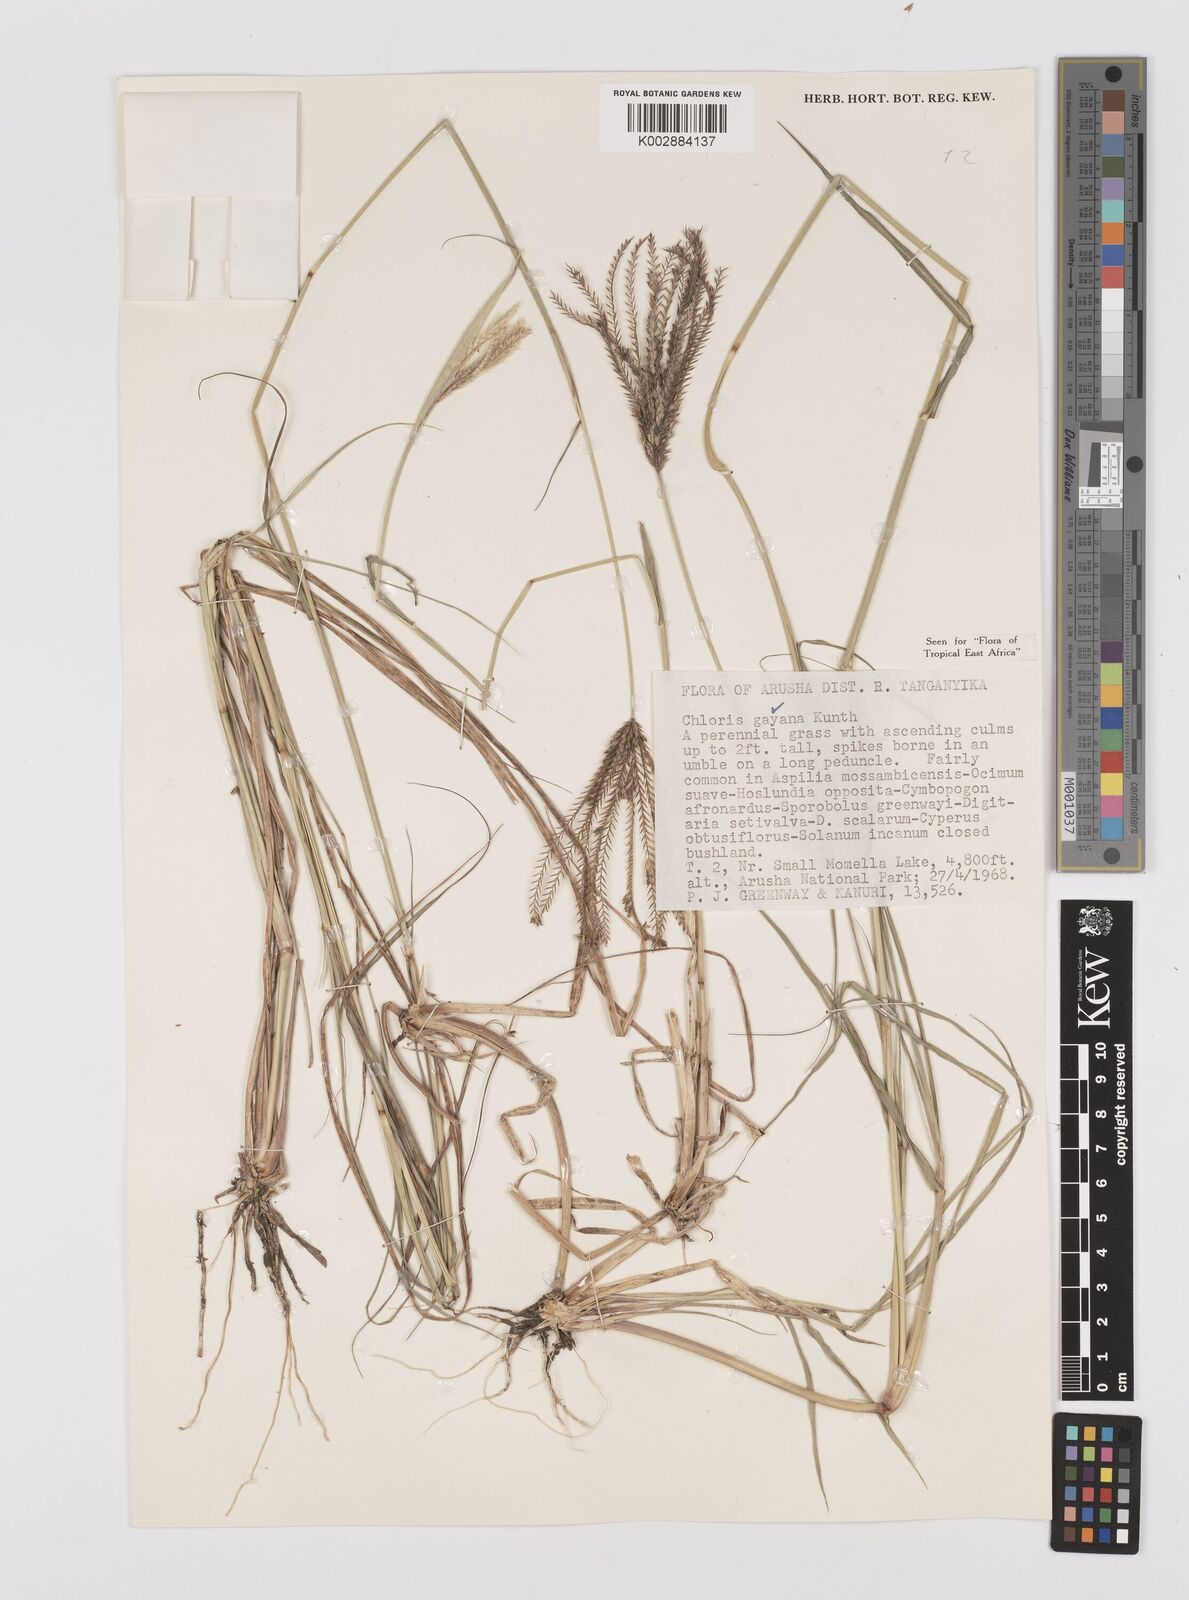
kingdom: Plantae
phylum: Tracheophyta
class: Liliopsida
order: Poales
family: Poaceae
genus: Chloris
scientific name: Chloris gayana
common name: Rhodes grass
